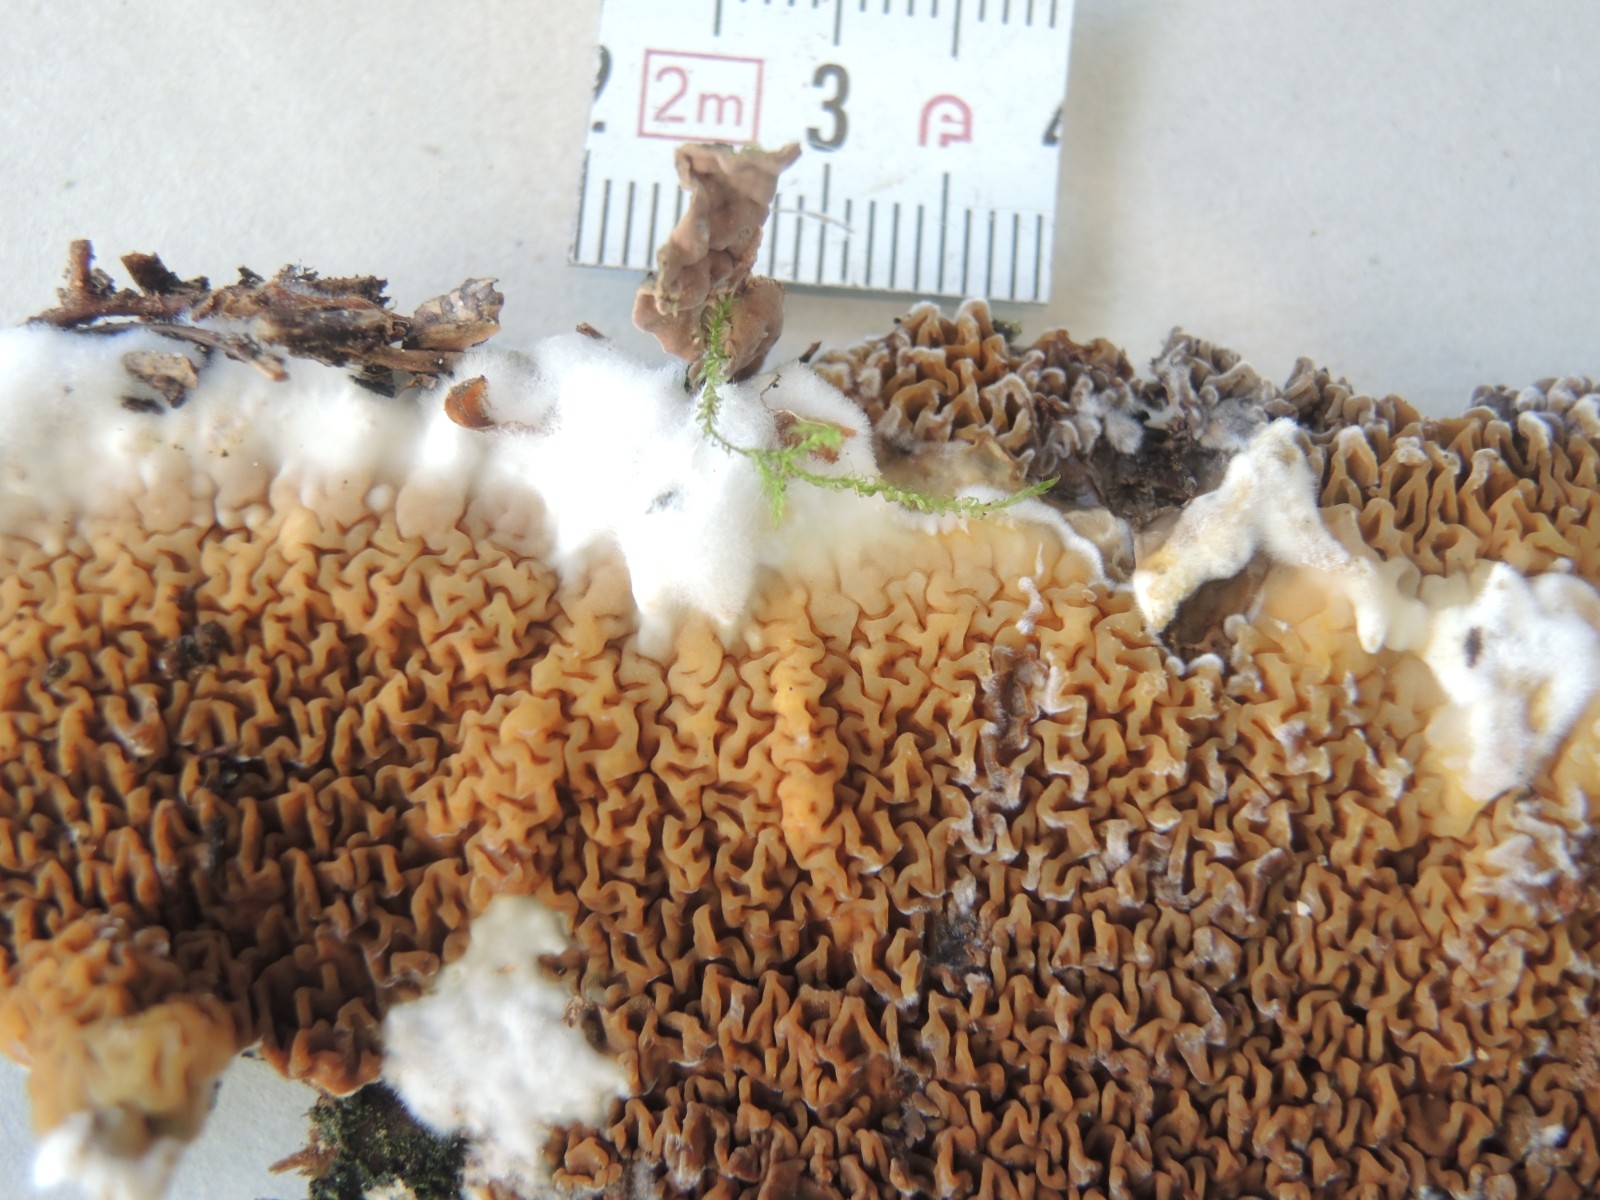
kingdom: Fungi
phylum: Basidiomycota
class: Agaricomycetes
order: Boletales
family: Serpulaceae
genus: Serpula
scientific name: Serpula himantioides
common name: tyndkødet hussvamp
